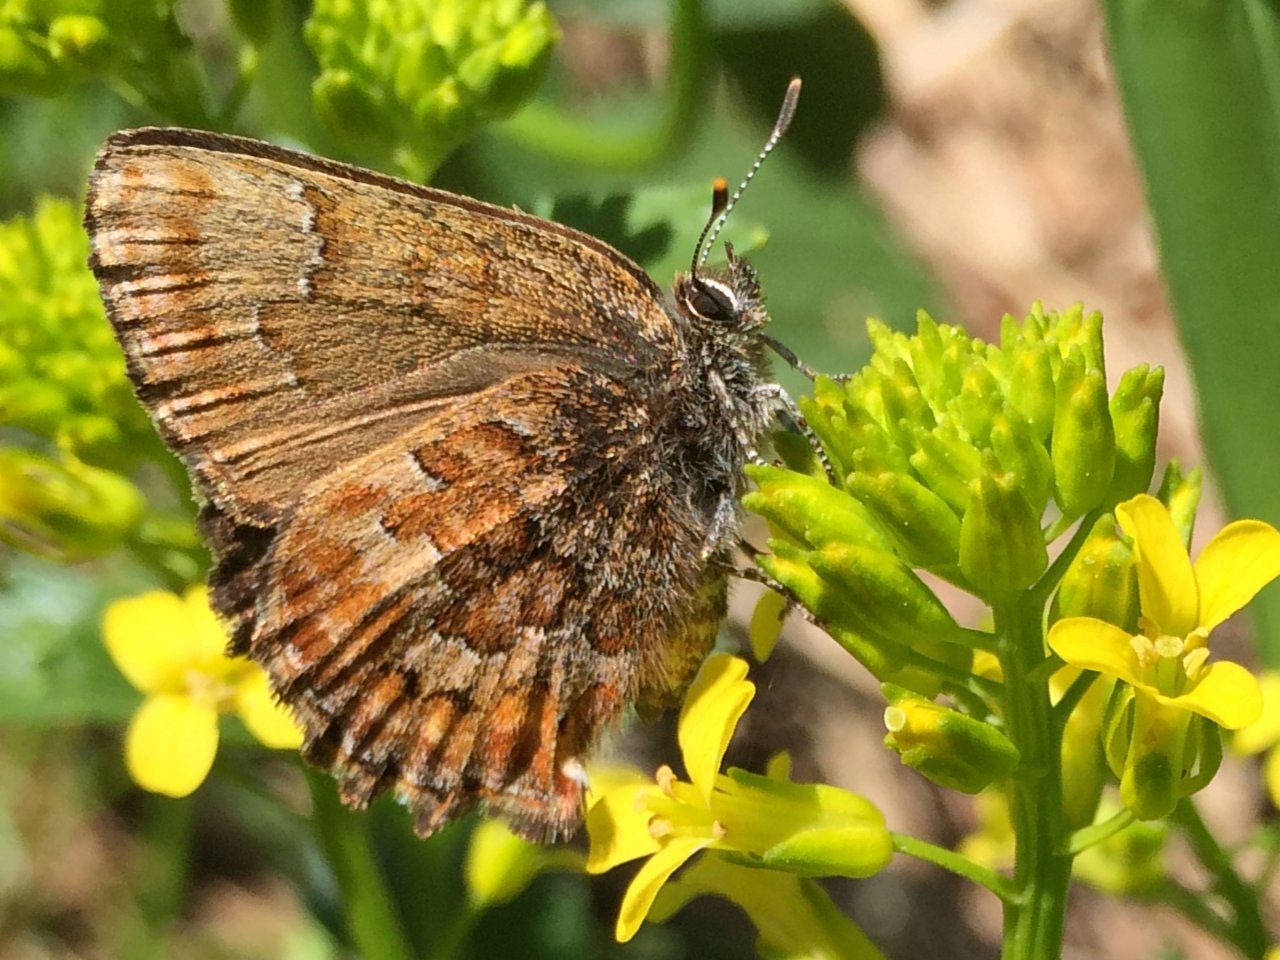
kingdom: Animalia
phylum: Arthropoda
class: Insecta
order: Lepidoptera
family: Lycaenidae
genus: Incisalia
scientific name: Incisalia niphon
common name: Eastern Pine Elfin
